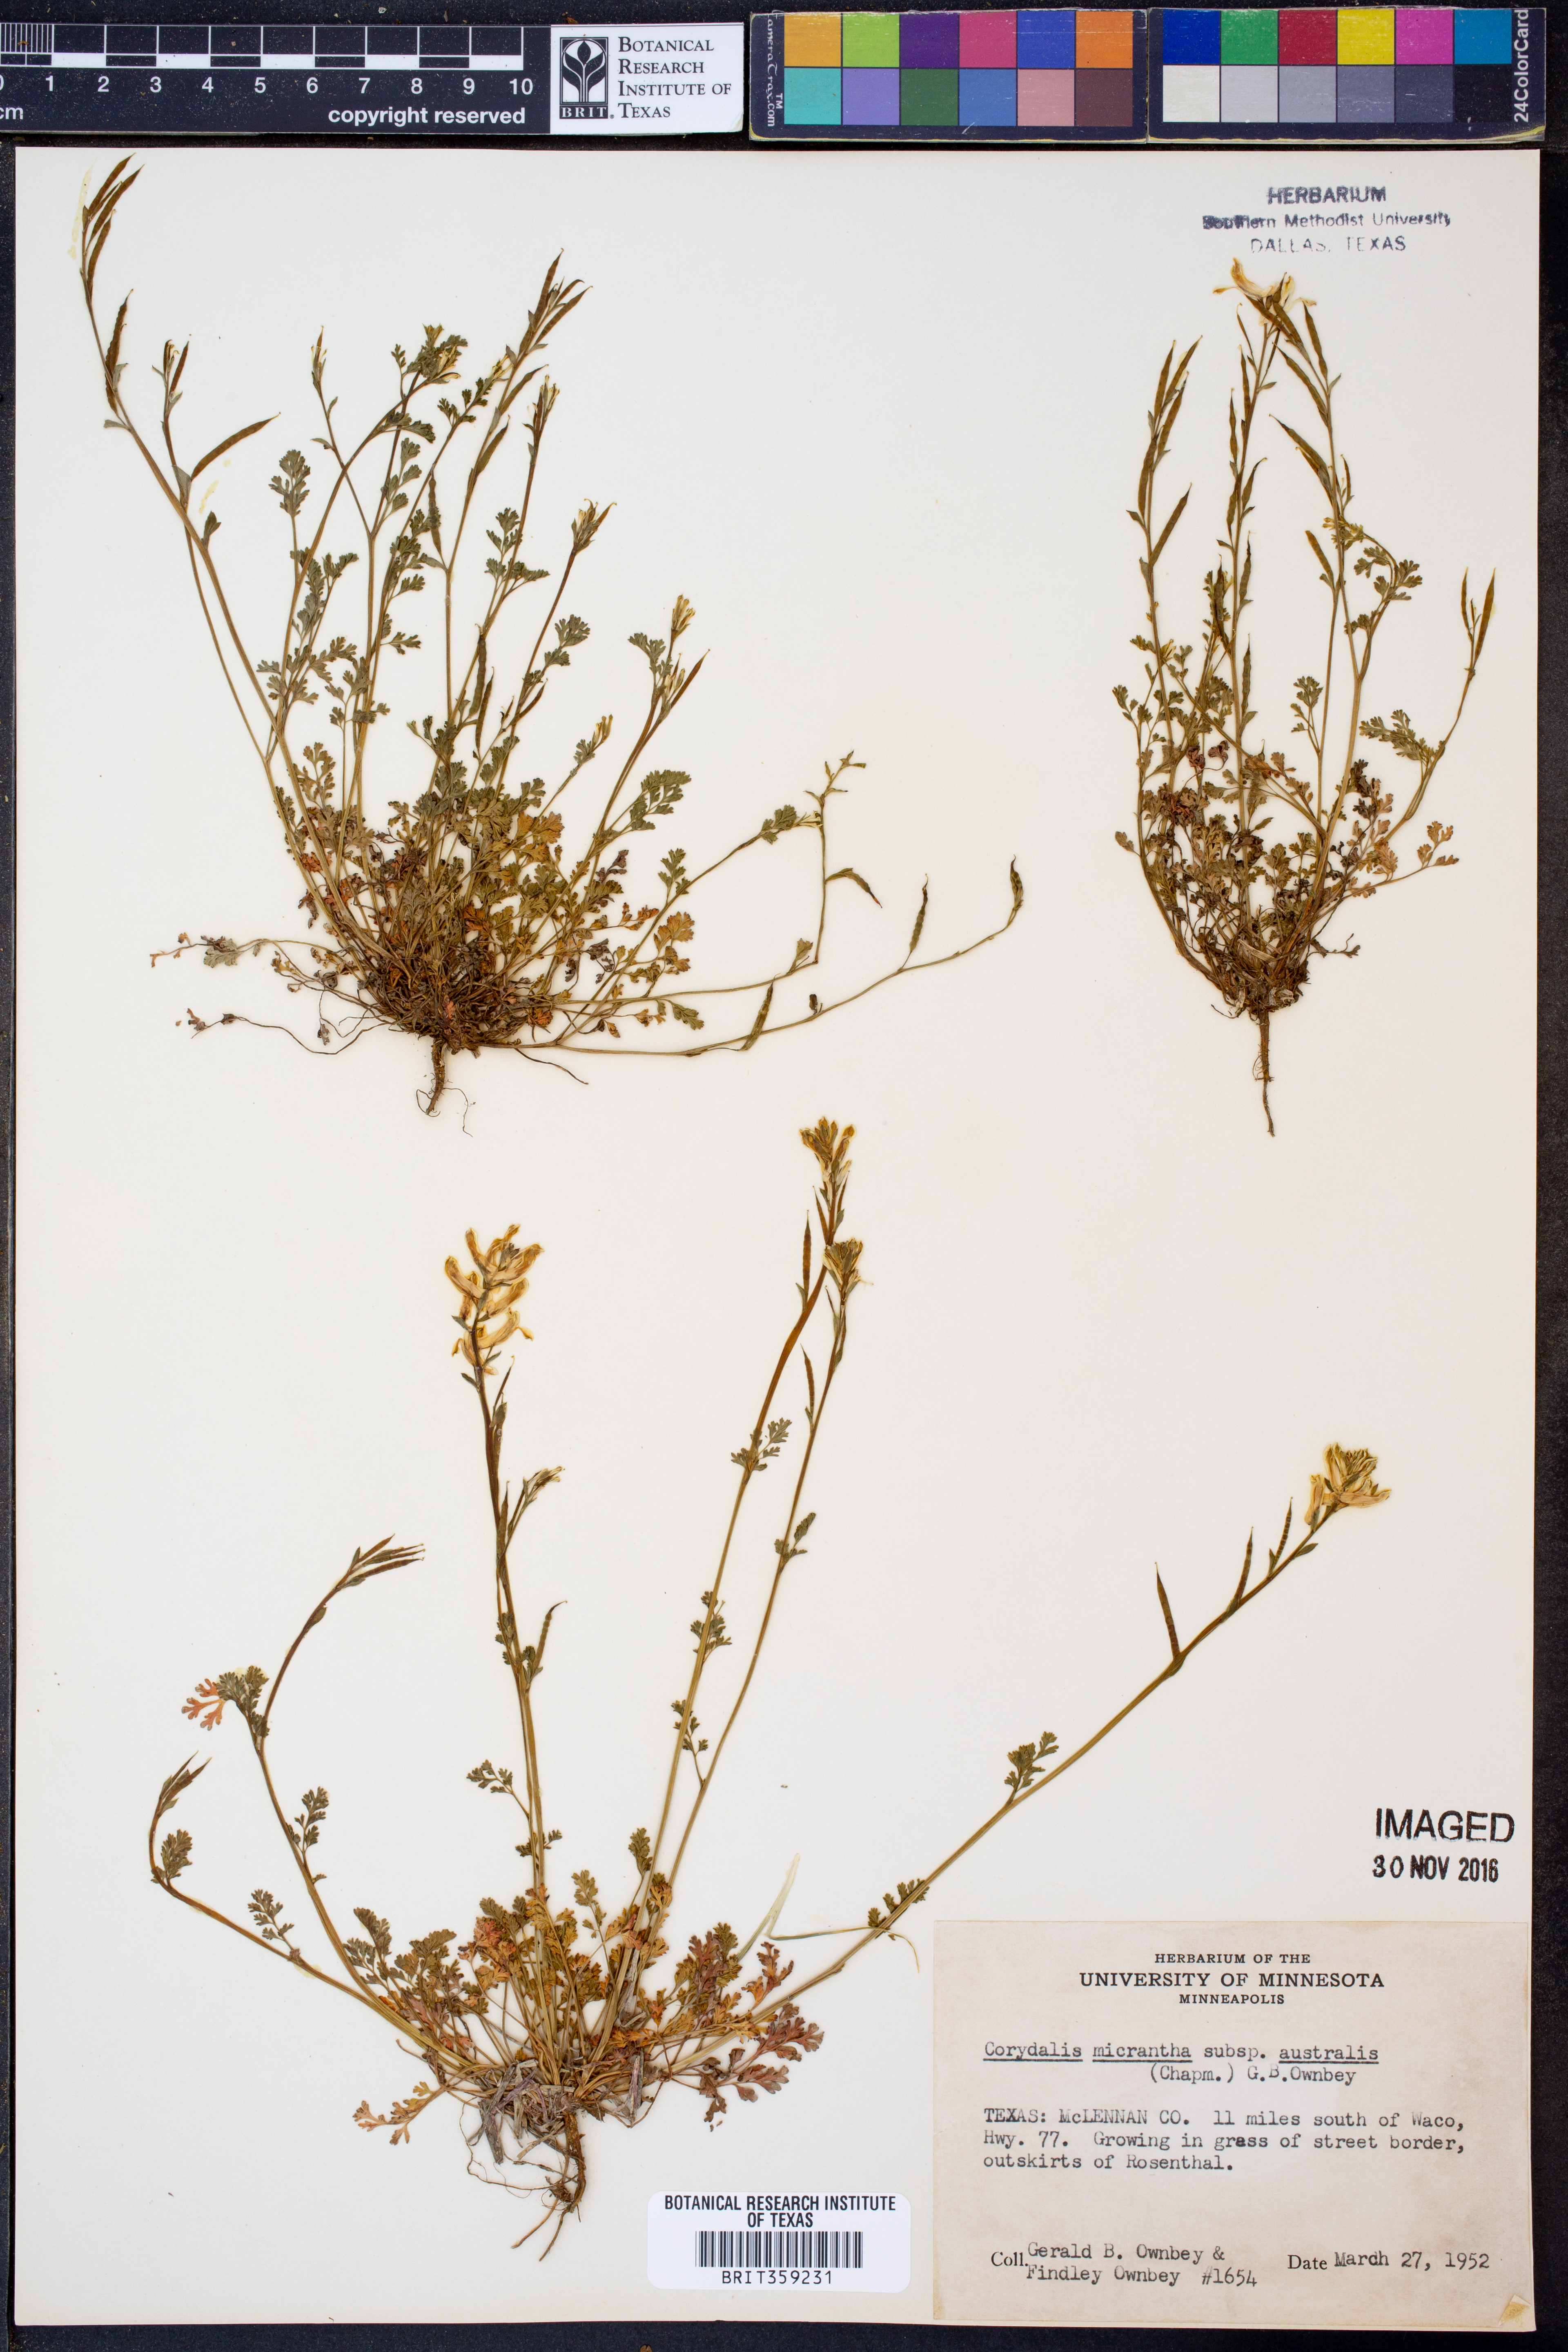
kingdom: Plantae
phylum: Tracheophyta
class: Magnoliopsida
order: Ranunculales
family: Papaveraceae
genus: Corydalis
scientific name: Corydalis micrantha
